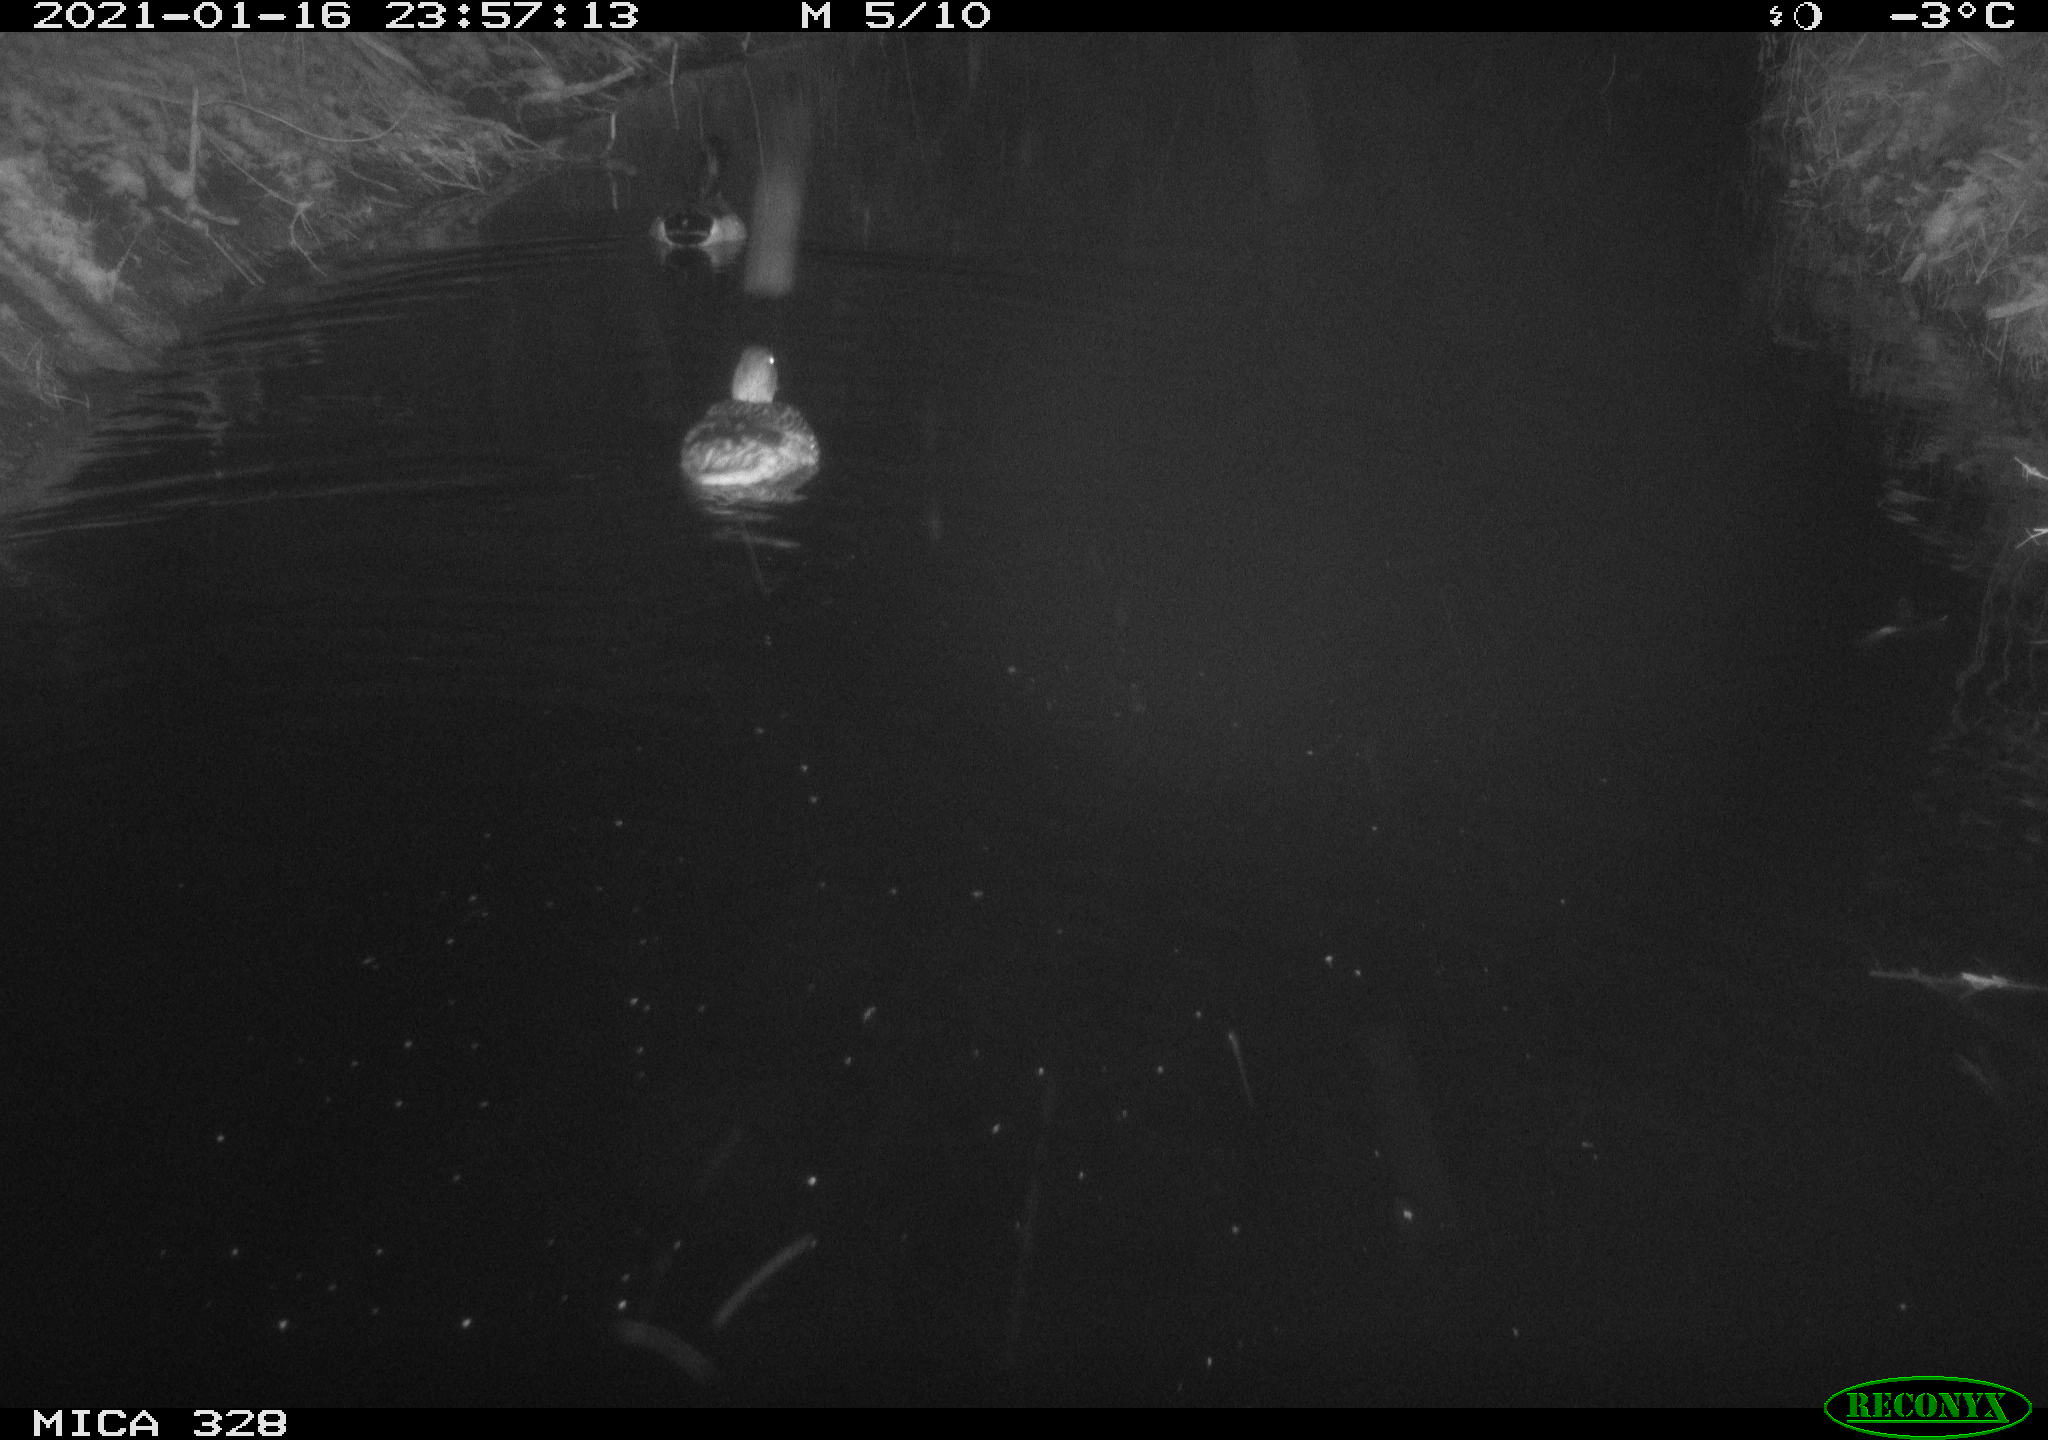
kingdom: Animalia
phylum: Chordata
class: Aves
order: Anseriformes
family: Anatidae
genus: Anas
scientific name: Anas platyrhynchos
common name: Mallard
